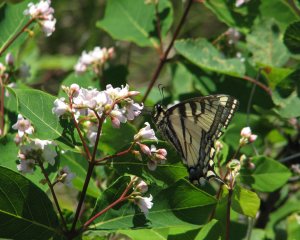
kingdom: Animalia
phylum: Arthropoda
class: Insecta
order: Lepidoptera
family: Papilionidae
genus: Pterourus
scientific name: Pterourus canadensis
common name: Canadian Tiger Swallowtail
